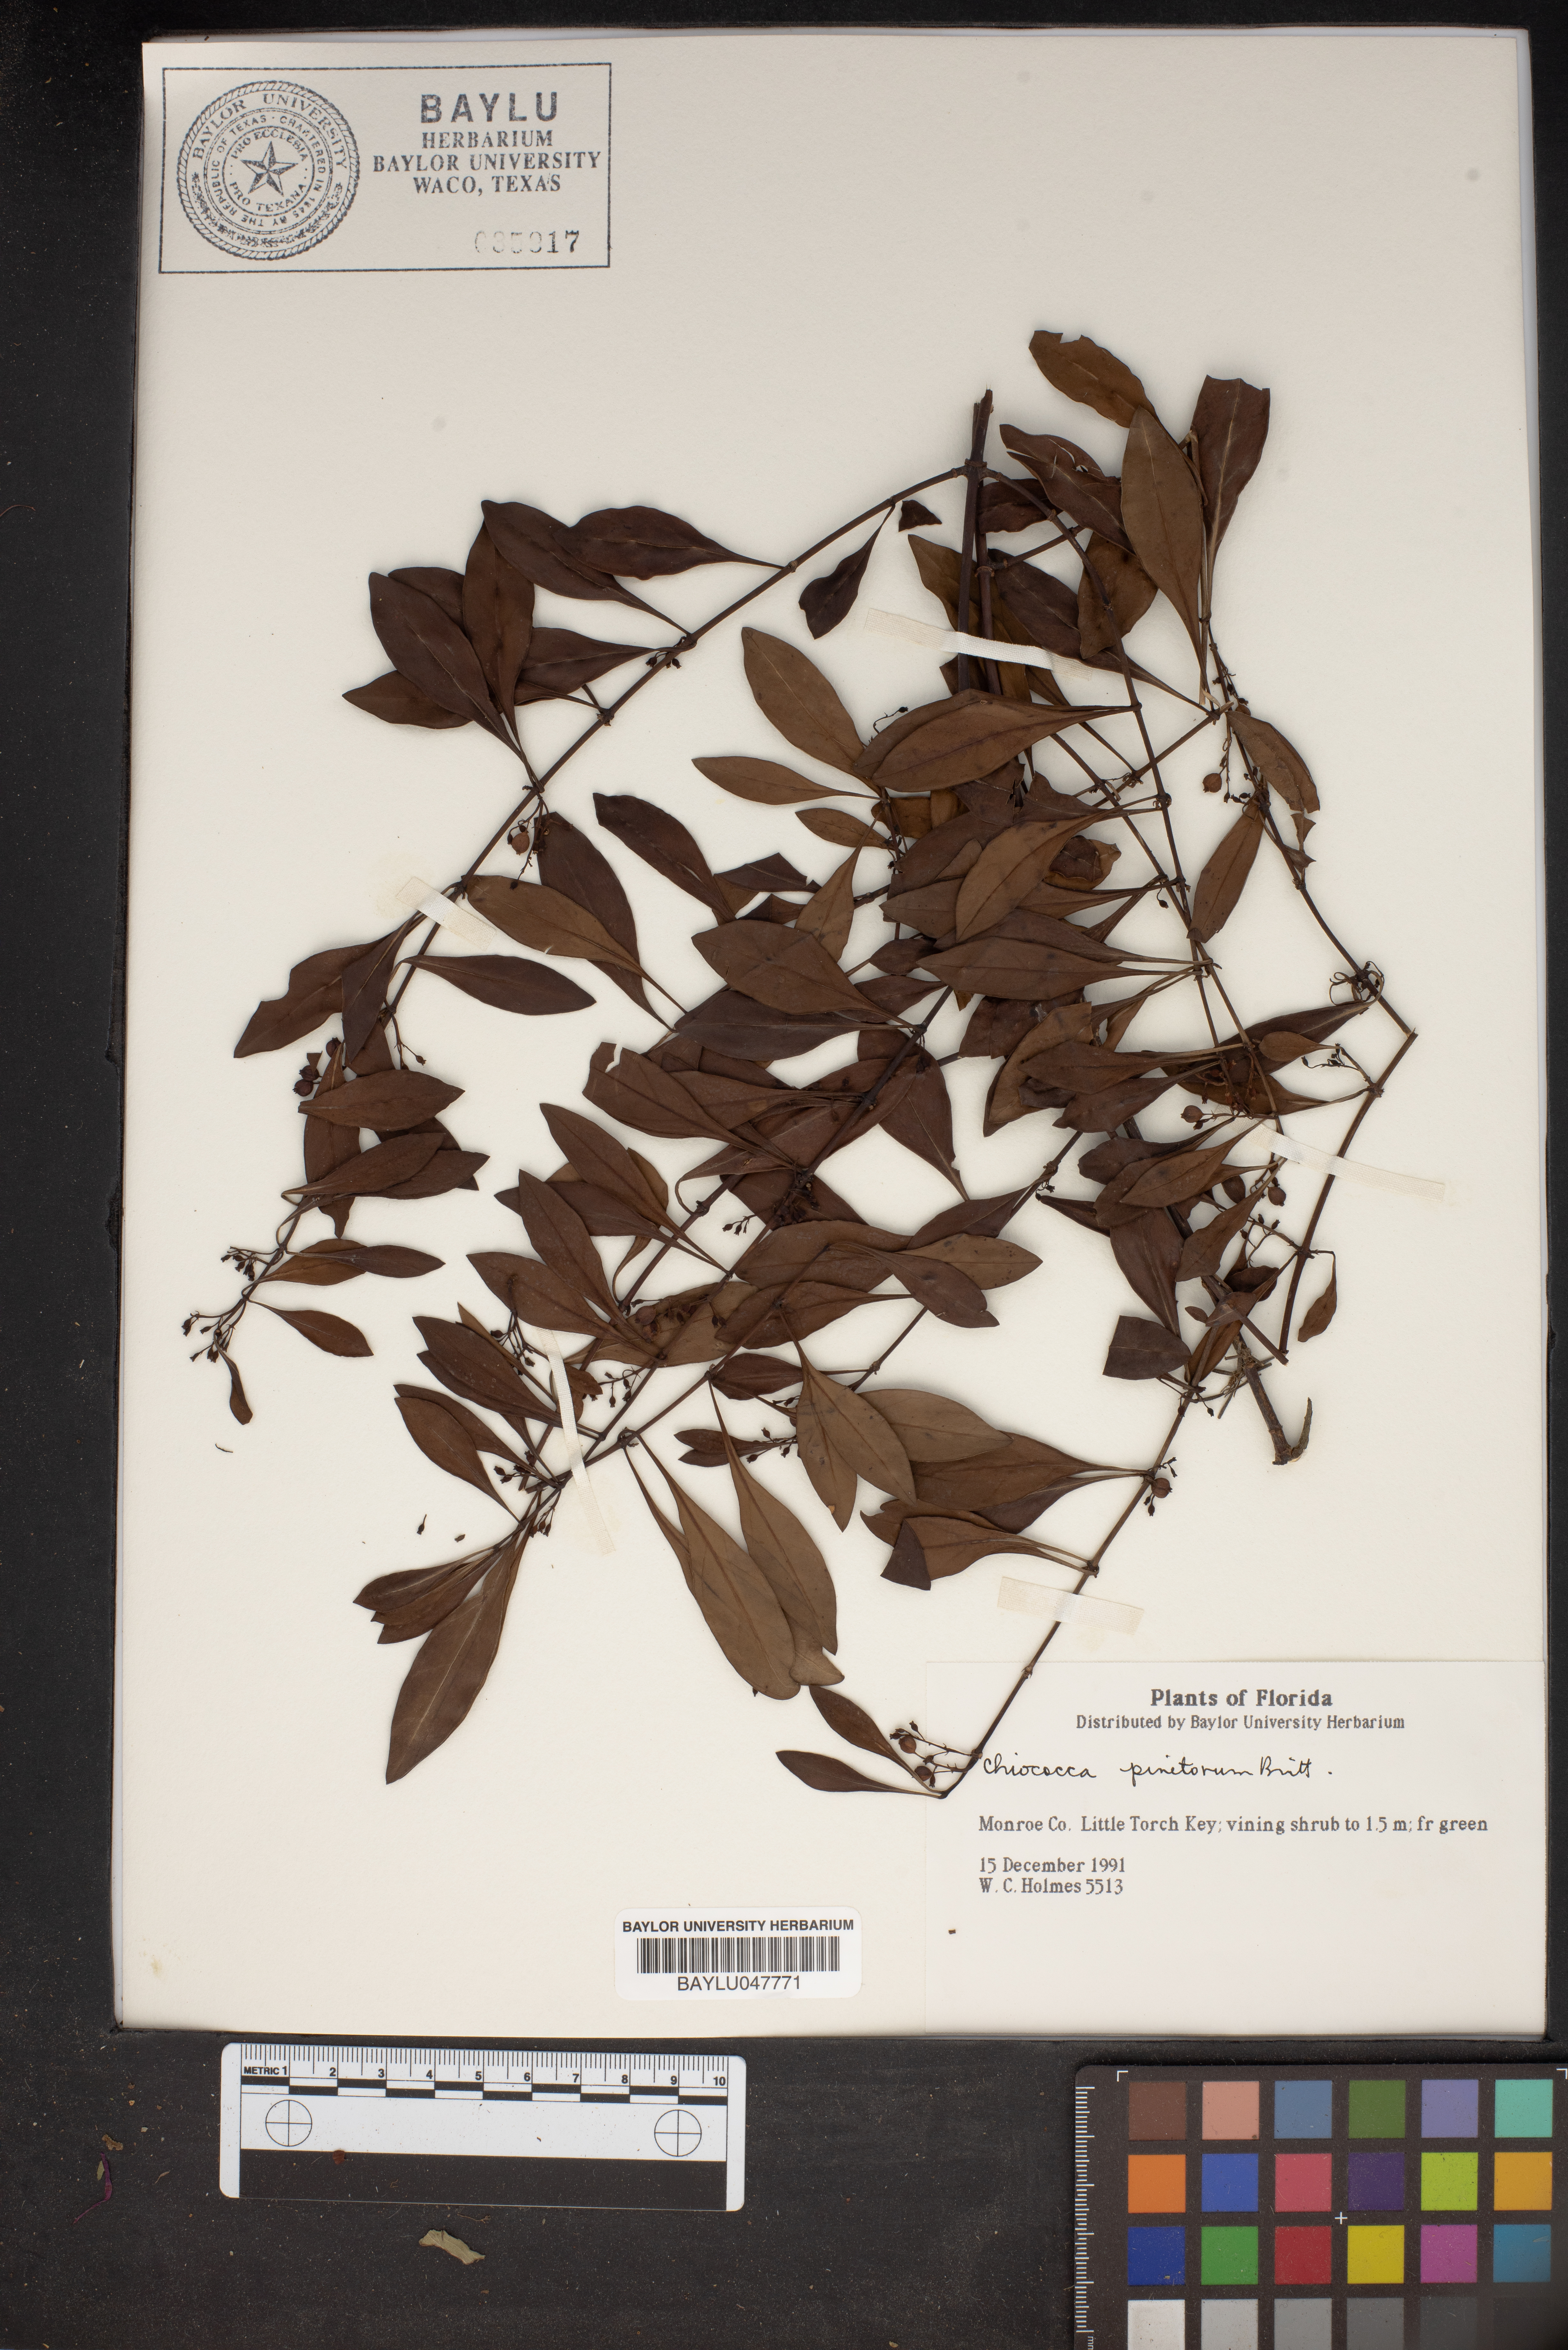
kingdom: Plantae
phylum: Tracheophyta
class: Magnoliopsida
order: Gentianales
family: Rubiaceae
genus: Chiococca
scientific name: Chiococca alba
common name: Snowberry
